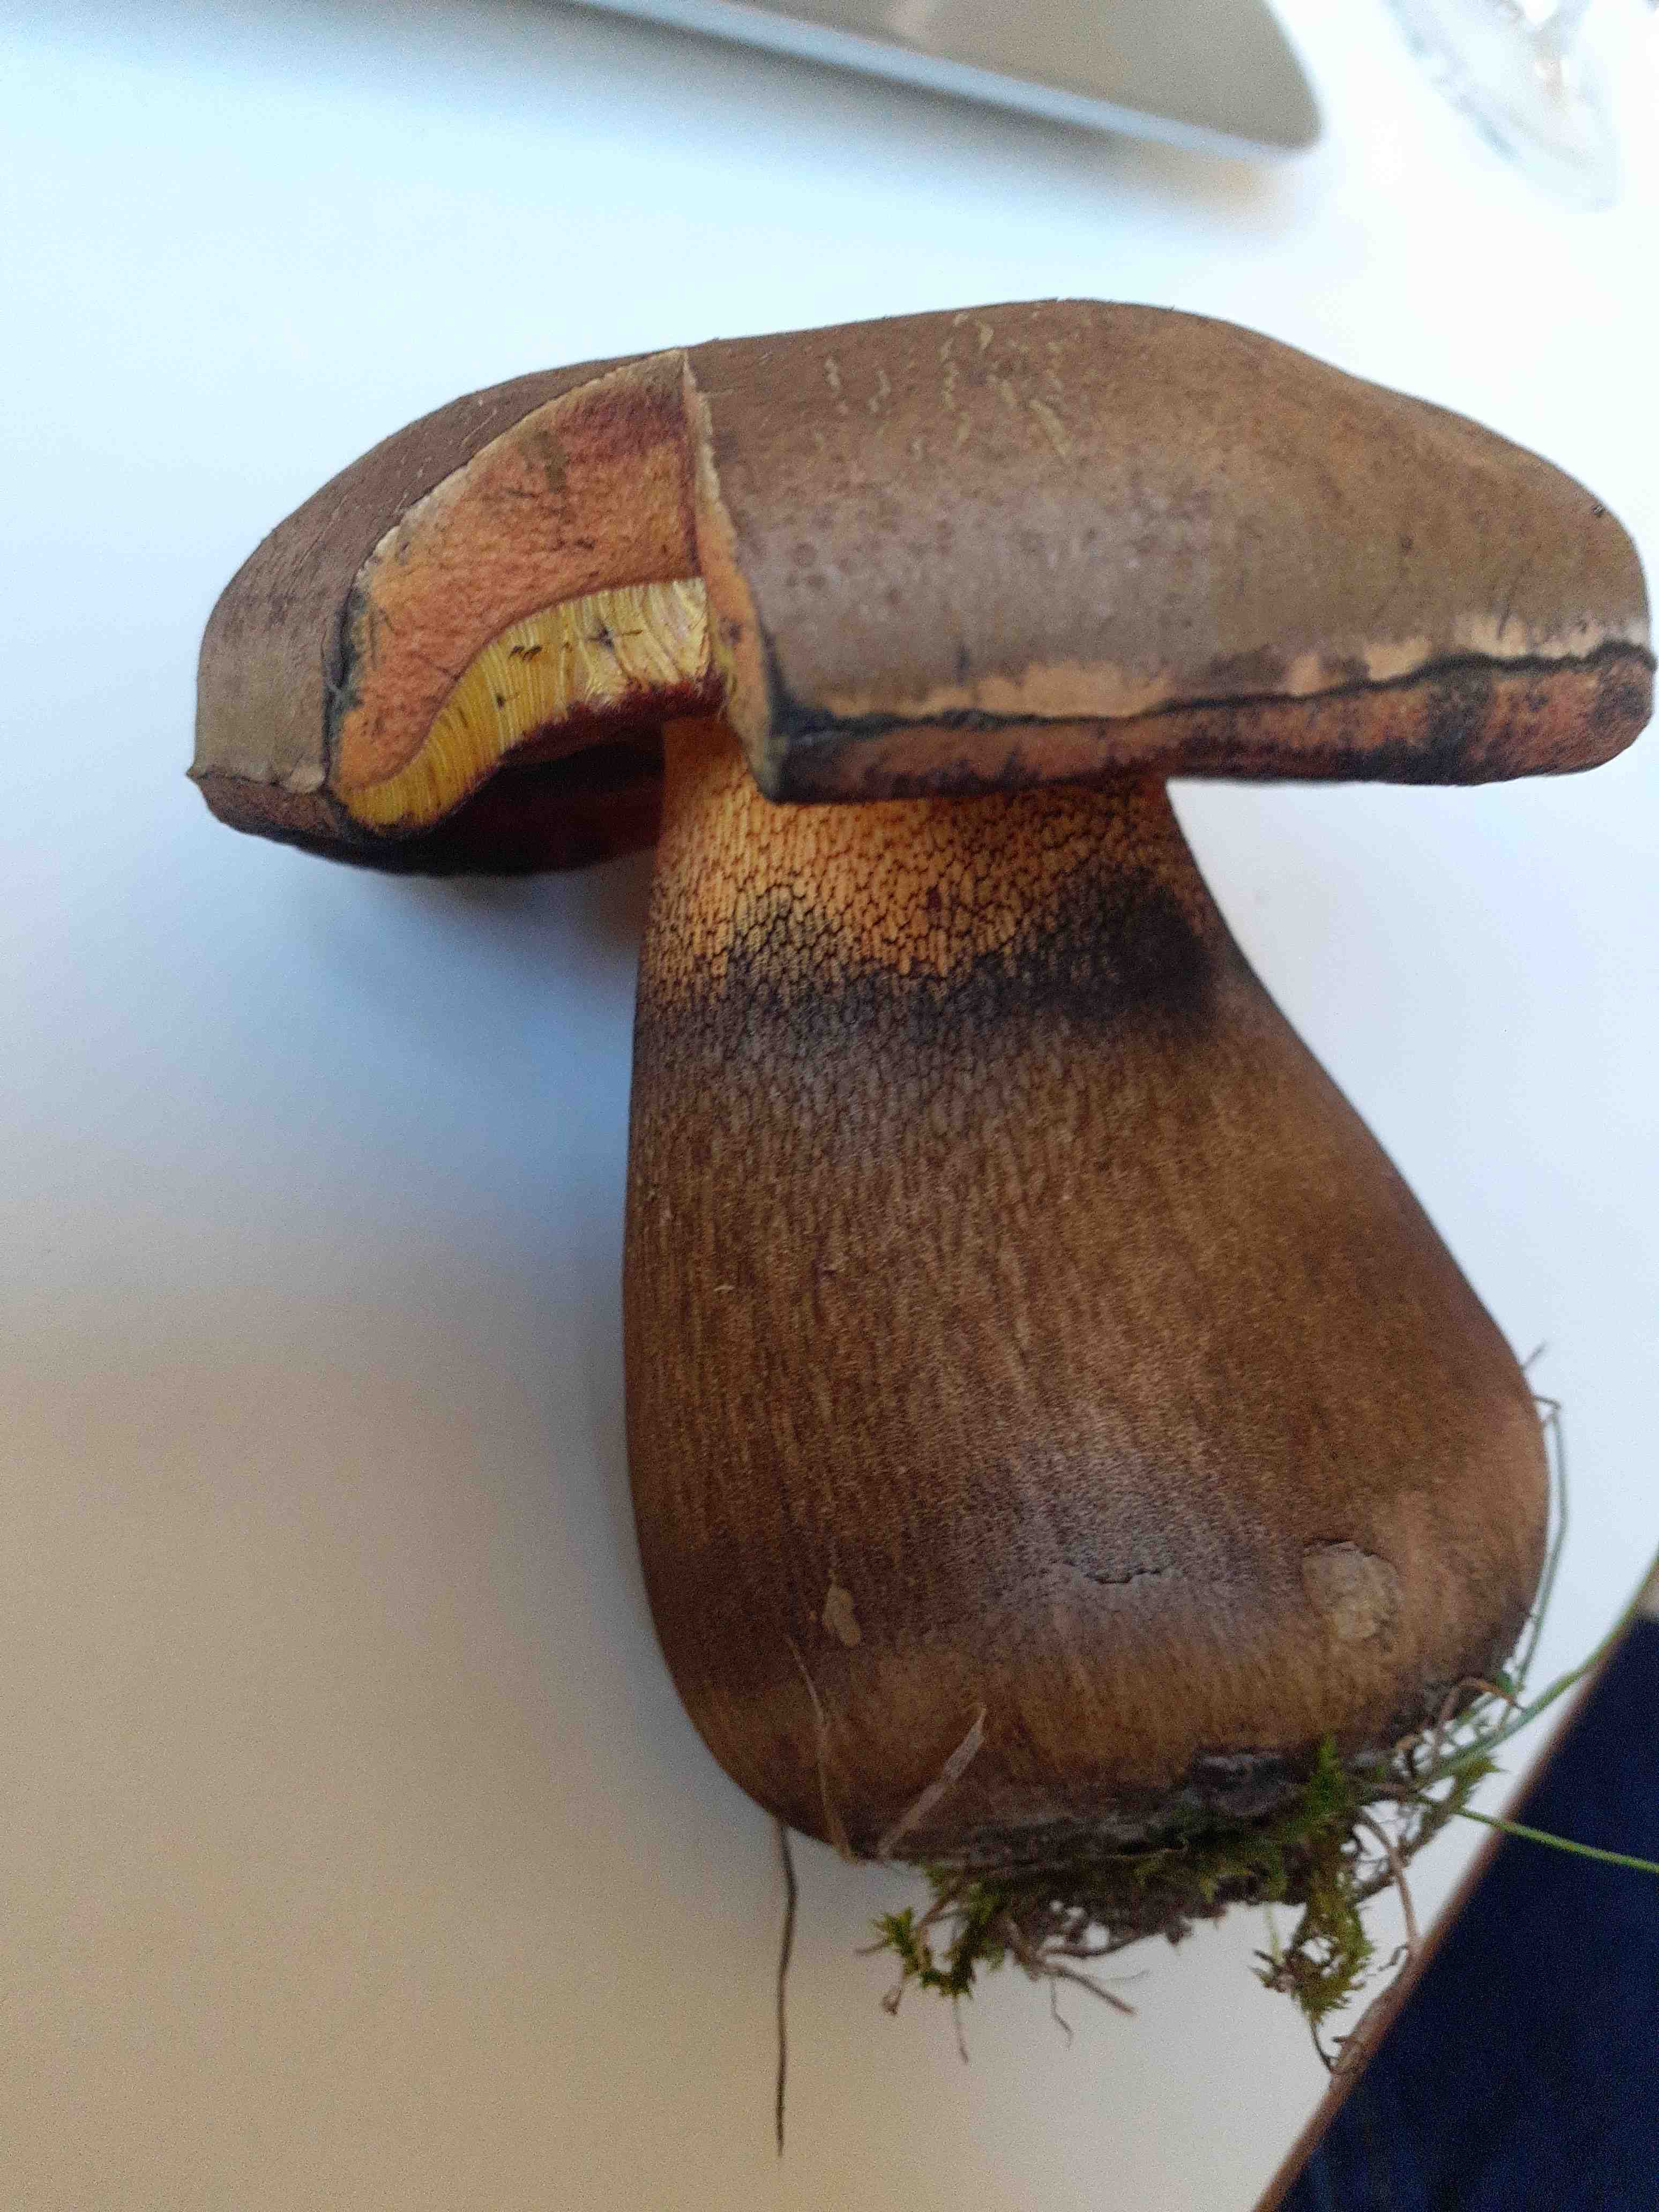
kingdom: Fungi
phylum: Basidiomycota
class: Agaricomycetes
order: Boletales
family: Boletaceae
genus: Suillellus
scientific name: Suillellus luridus
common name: netstokket indigorørhat
